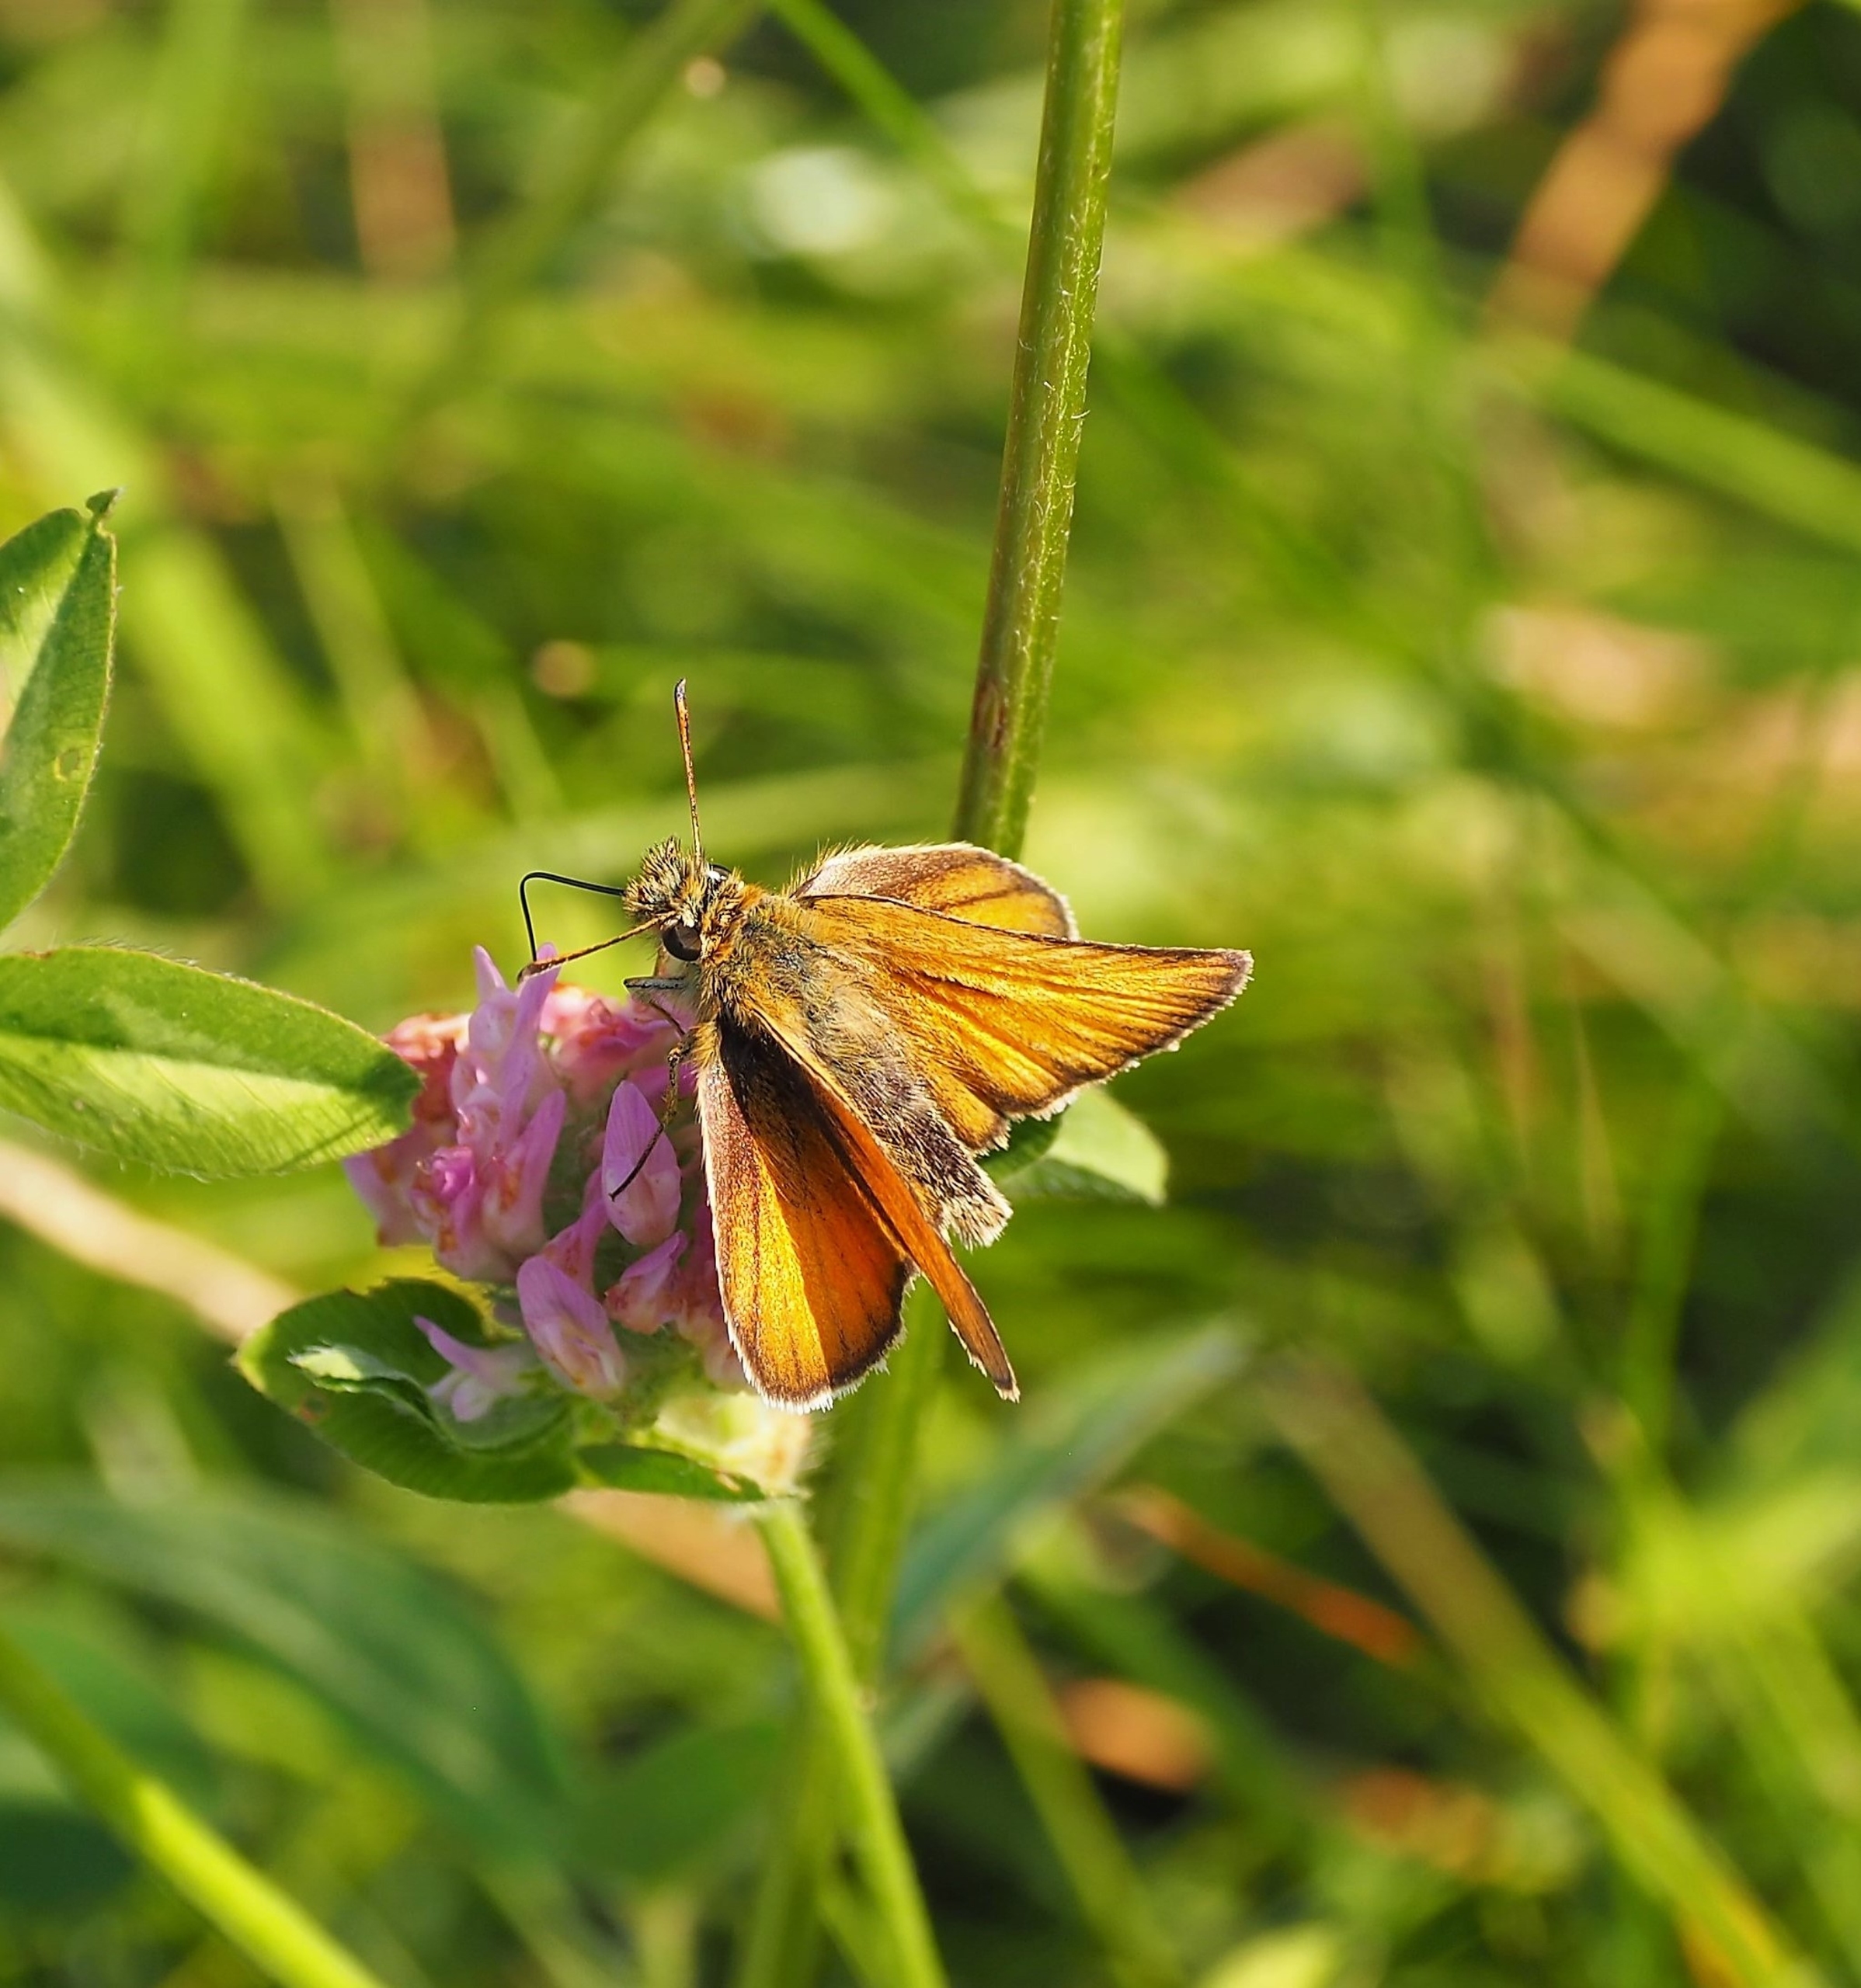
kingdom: Animalia
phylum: Arthropoda
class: Insecta
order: Lepidoptera
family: Hesperiidae
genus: Thymelicus
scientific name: Thymelicus lineola
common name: Stregbredpande
